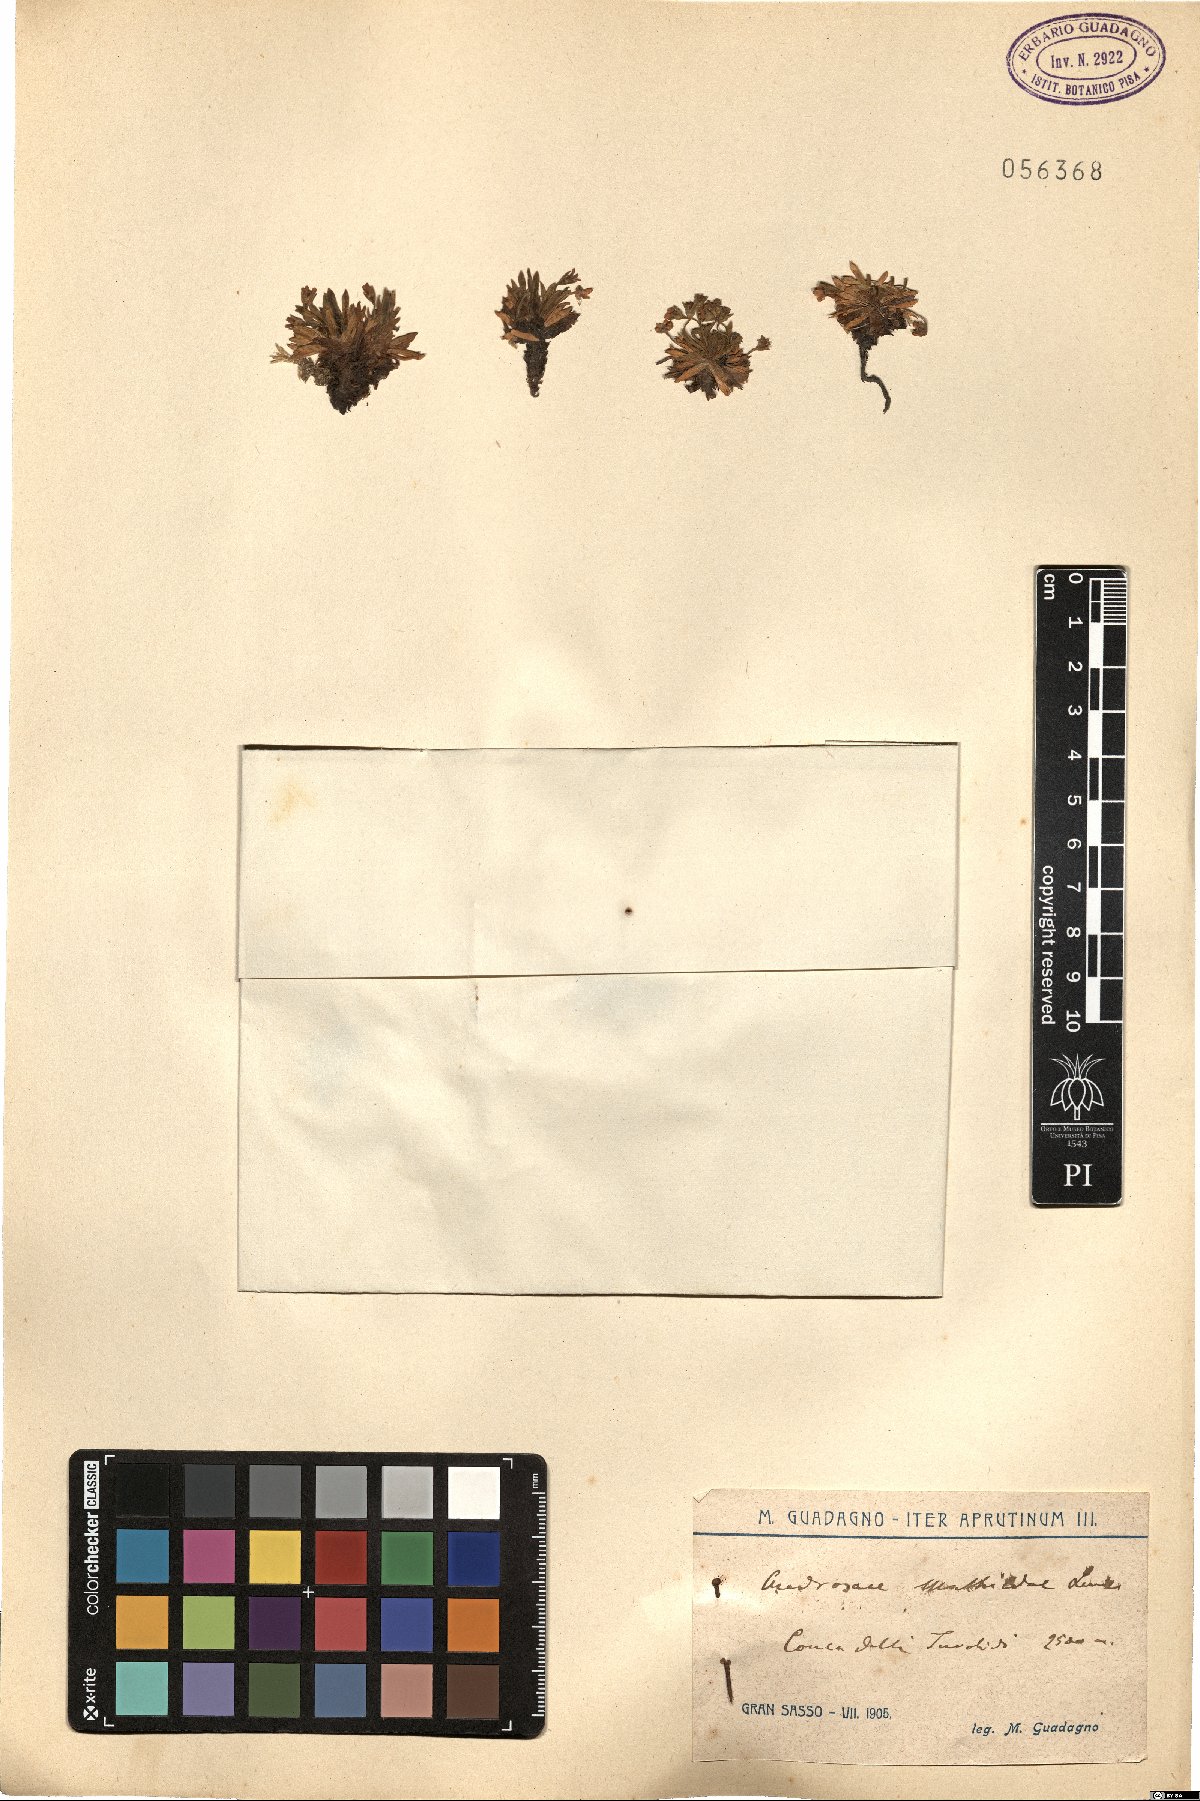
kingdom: Plantae
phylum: Tracheophyta
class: Magnoliopsida
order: Ericales
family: Primulaceae
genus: Androsace
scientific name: Androsace mathildae
